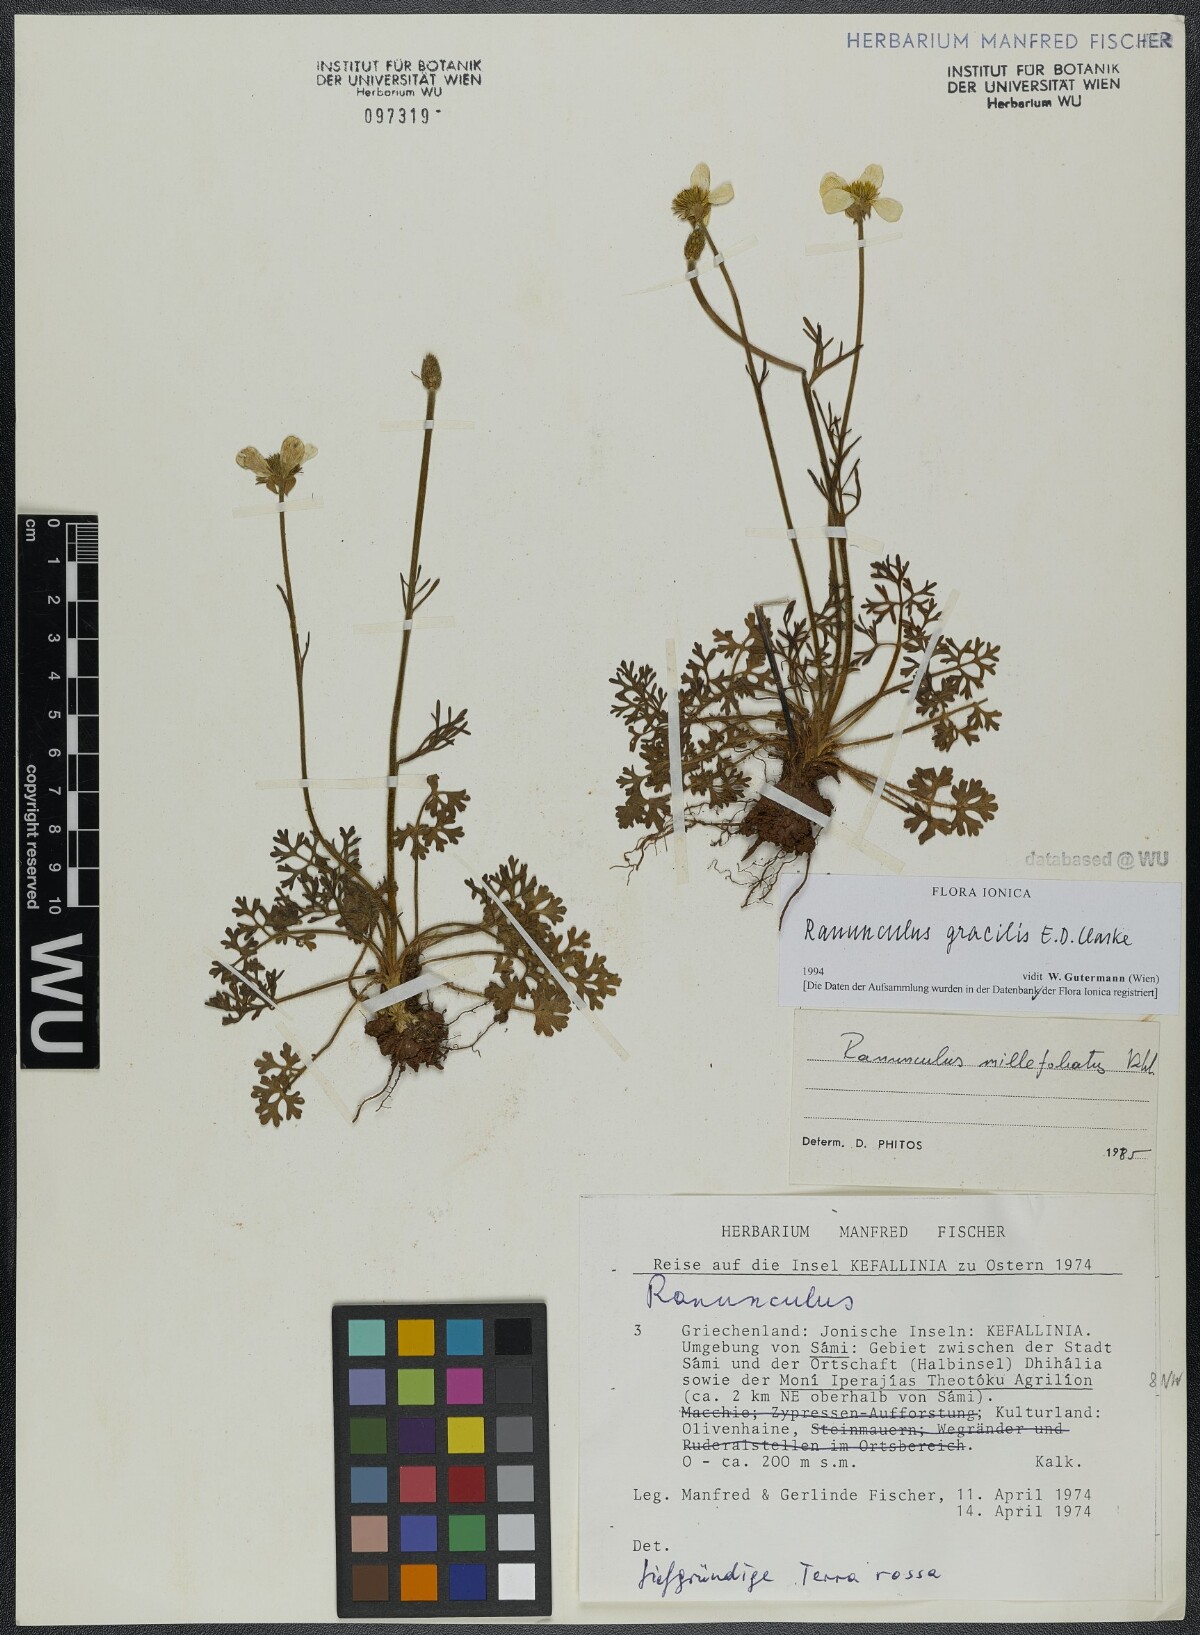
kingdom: Plantae
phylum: Tracheophyta
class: Magnoliopsida
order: Ranunculales
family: Ranunculaceae
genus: Ranunculus
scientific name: Ranunculus gracilis
